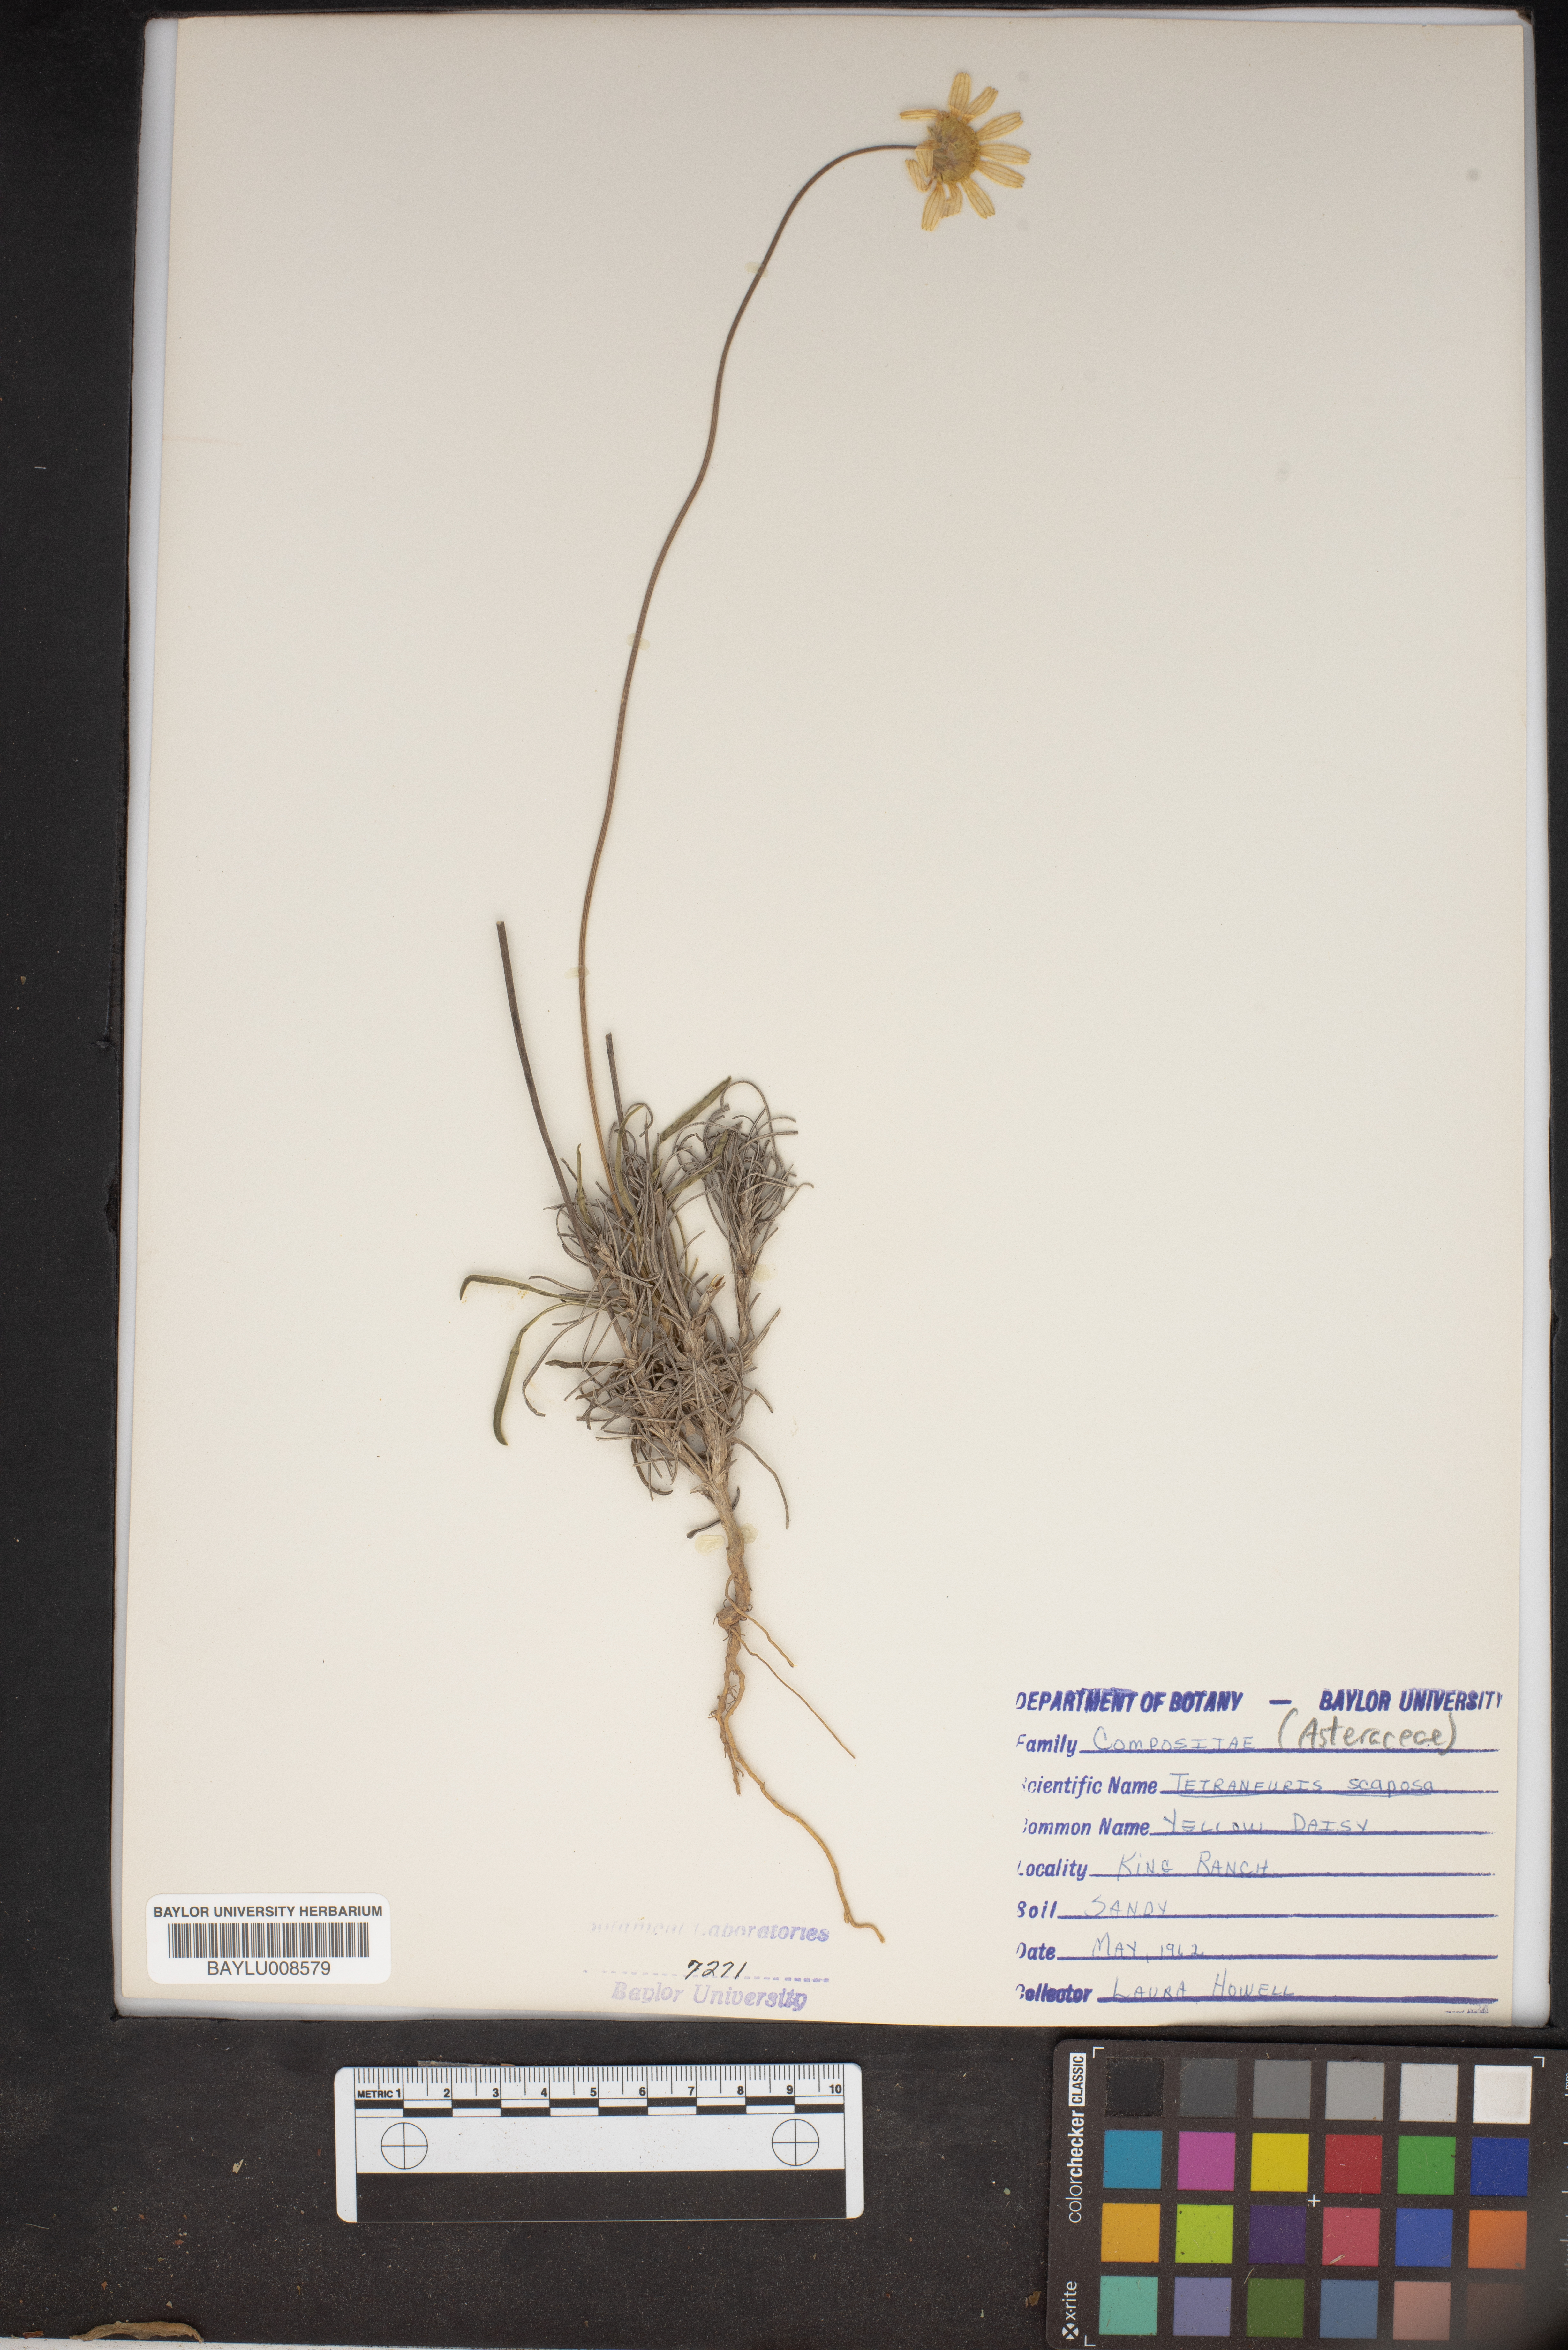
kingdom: Plantae
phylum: Tracheophyta
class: Magnoliopsida
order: Asterales
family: Asteraceae
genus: Tetraneuris
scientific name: Tetraneuris scaposa
